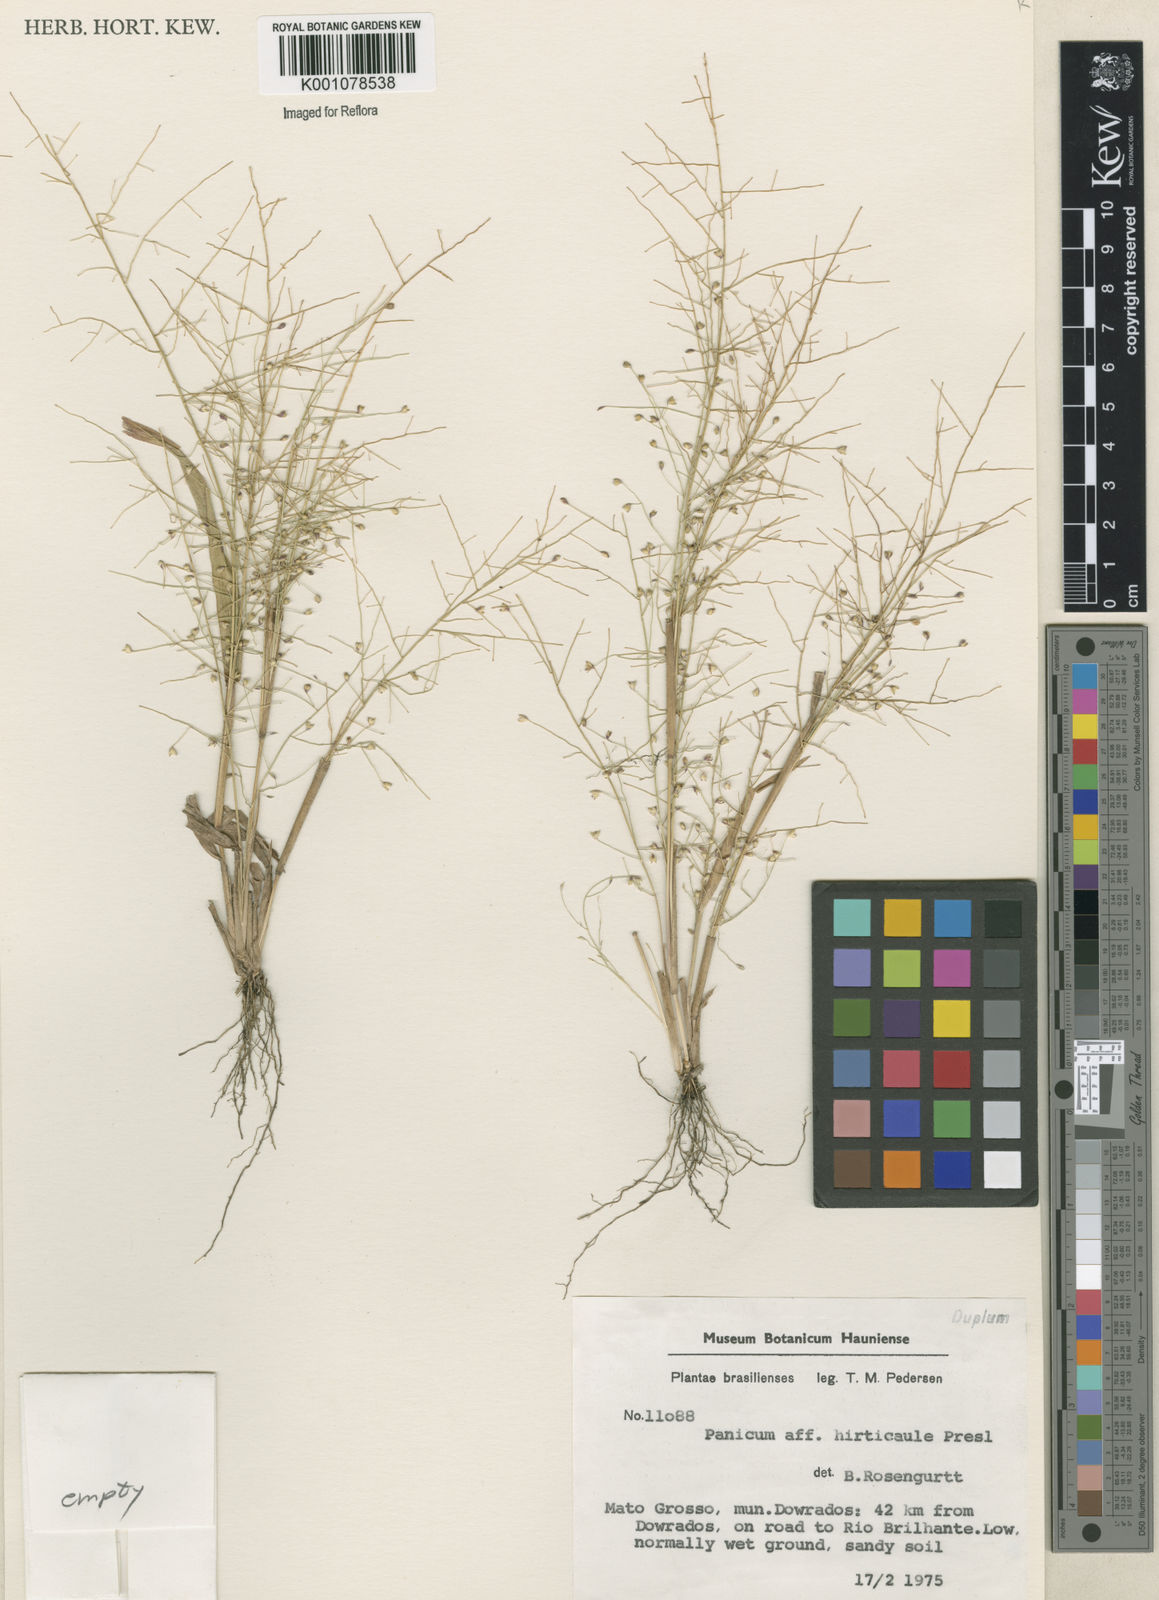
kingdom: Plantae
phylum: Tracheophyta
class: Liliopsida
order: Poales
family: Poaceae
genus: Panicum
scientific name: Panicum cayennense
